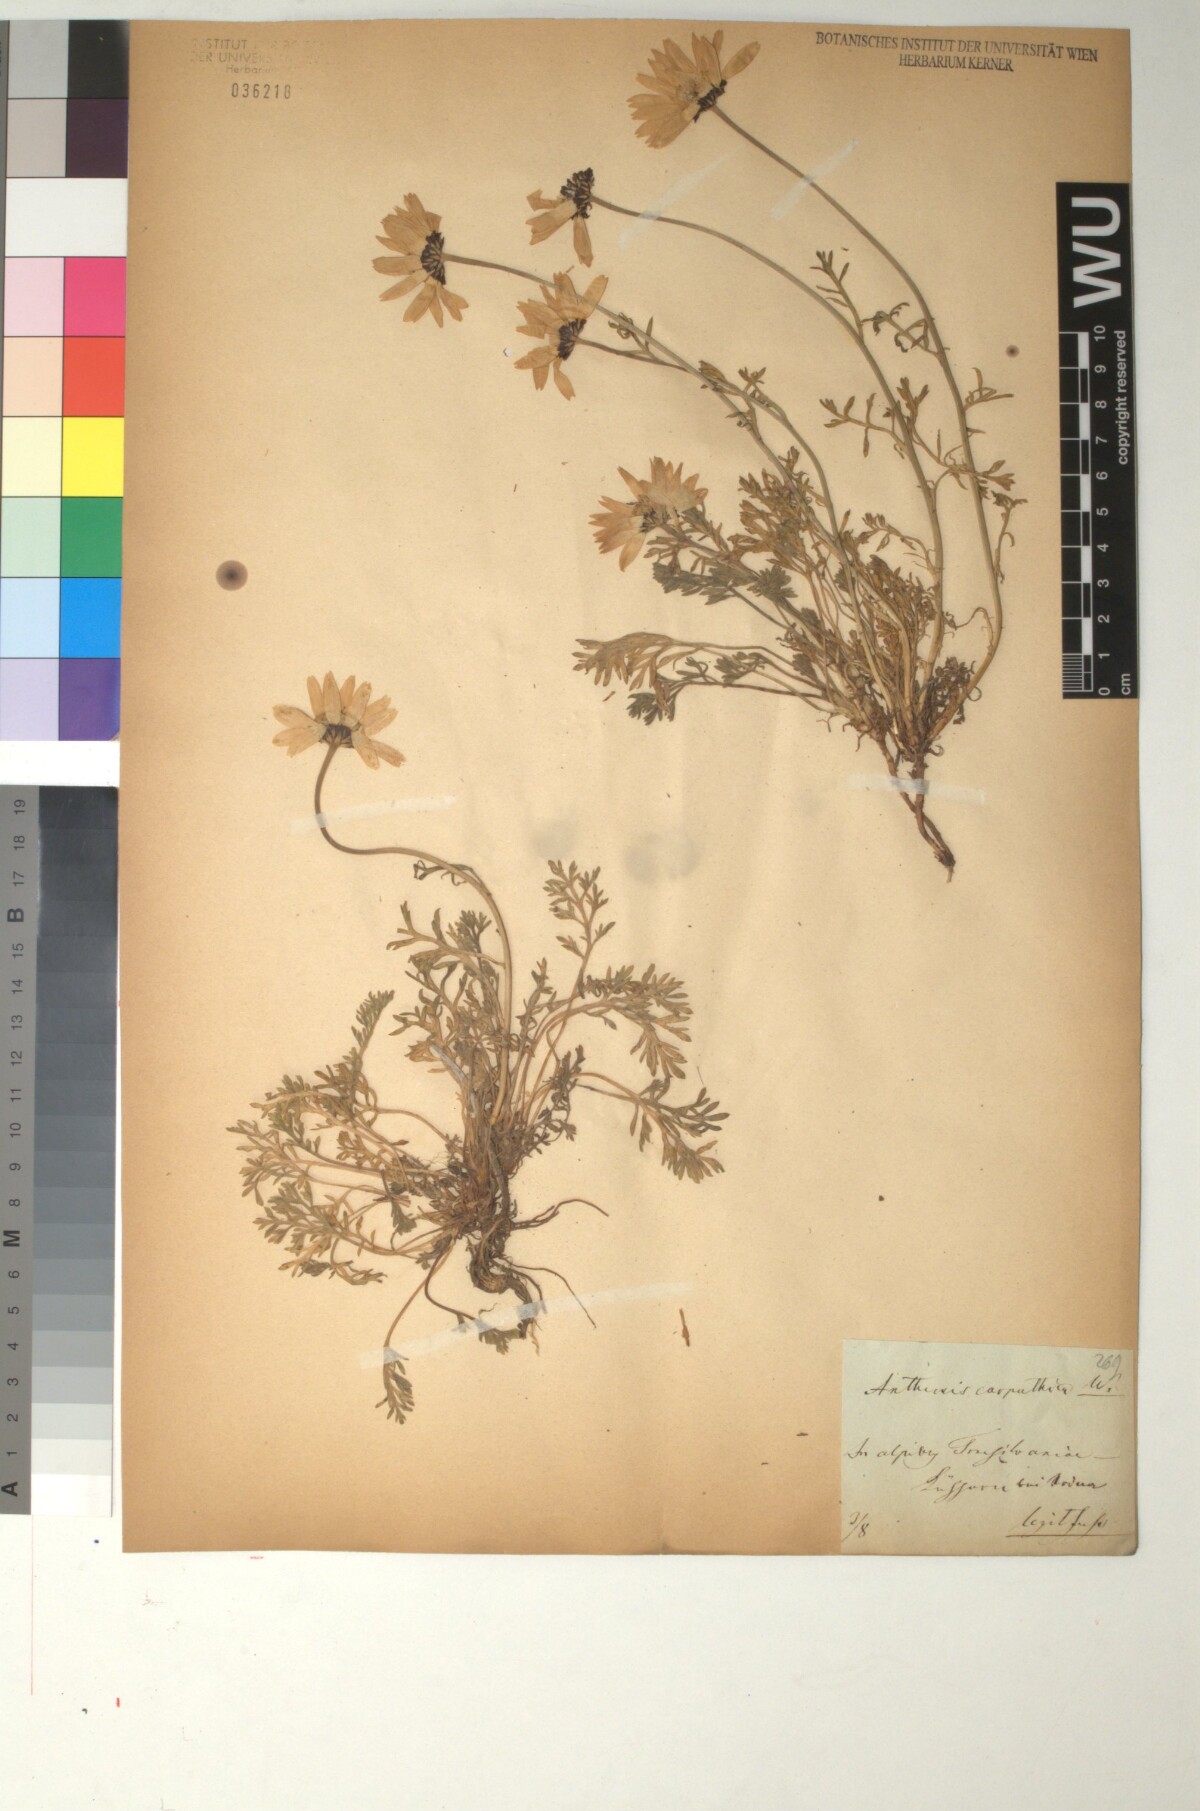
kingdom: Plantae
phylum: Tracheophyta
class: Magnoliopsida
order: Asterales
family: Asteraceae
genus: Anthemis
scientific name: Anthemis cretica
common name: Mountain dog-daisy
